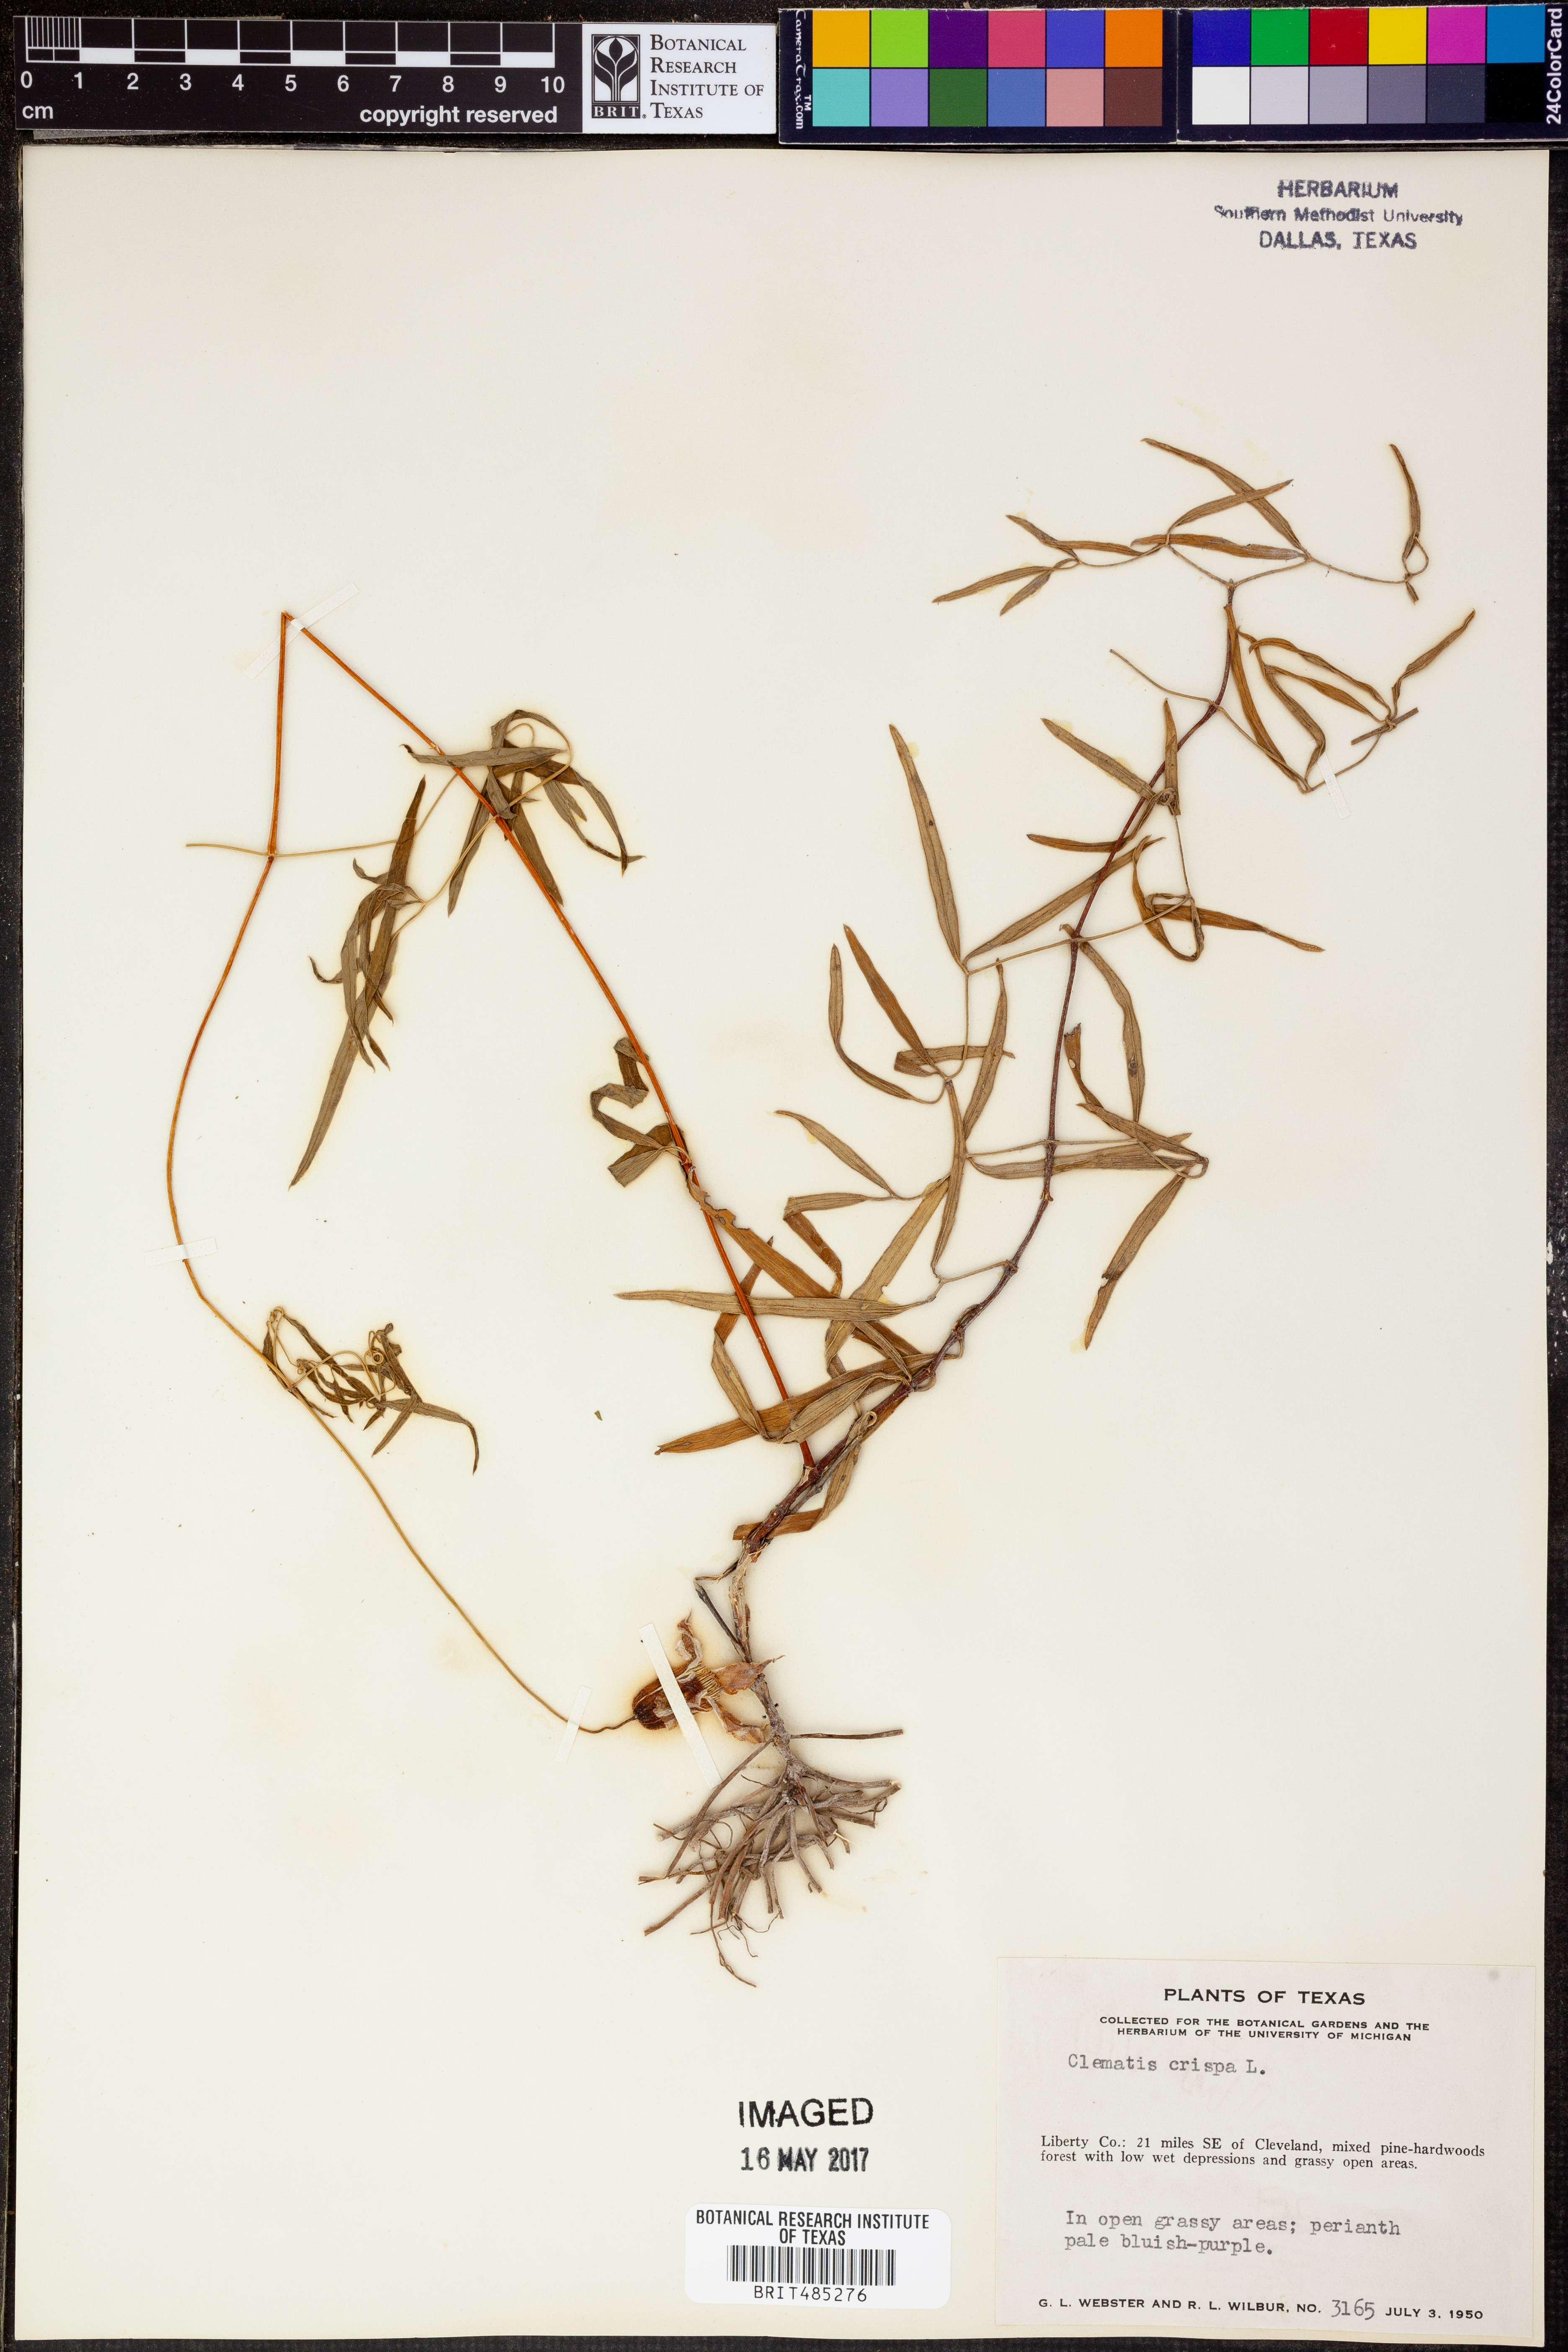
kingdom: Plantae
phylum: Tracheophyta
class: Magnoliopsida
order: Ranunculales
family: Ranunculaceae
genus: Clematis
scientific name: Clematis crispa
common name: Curly clematis
